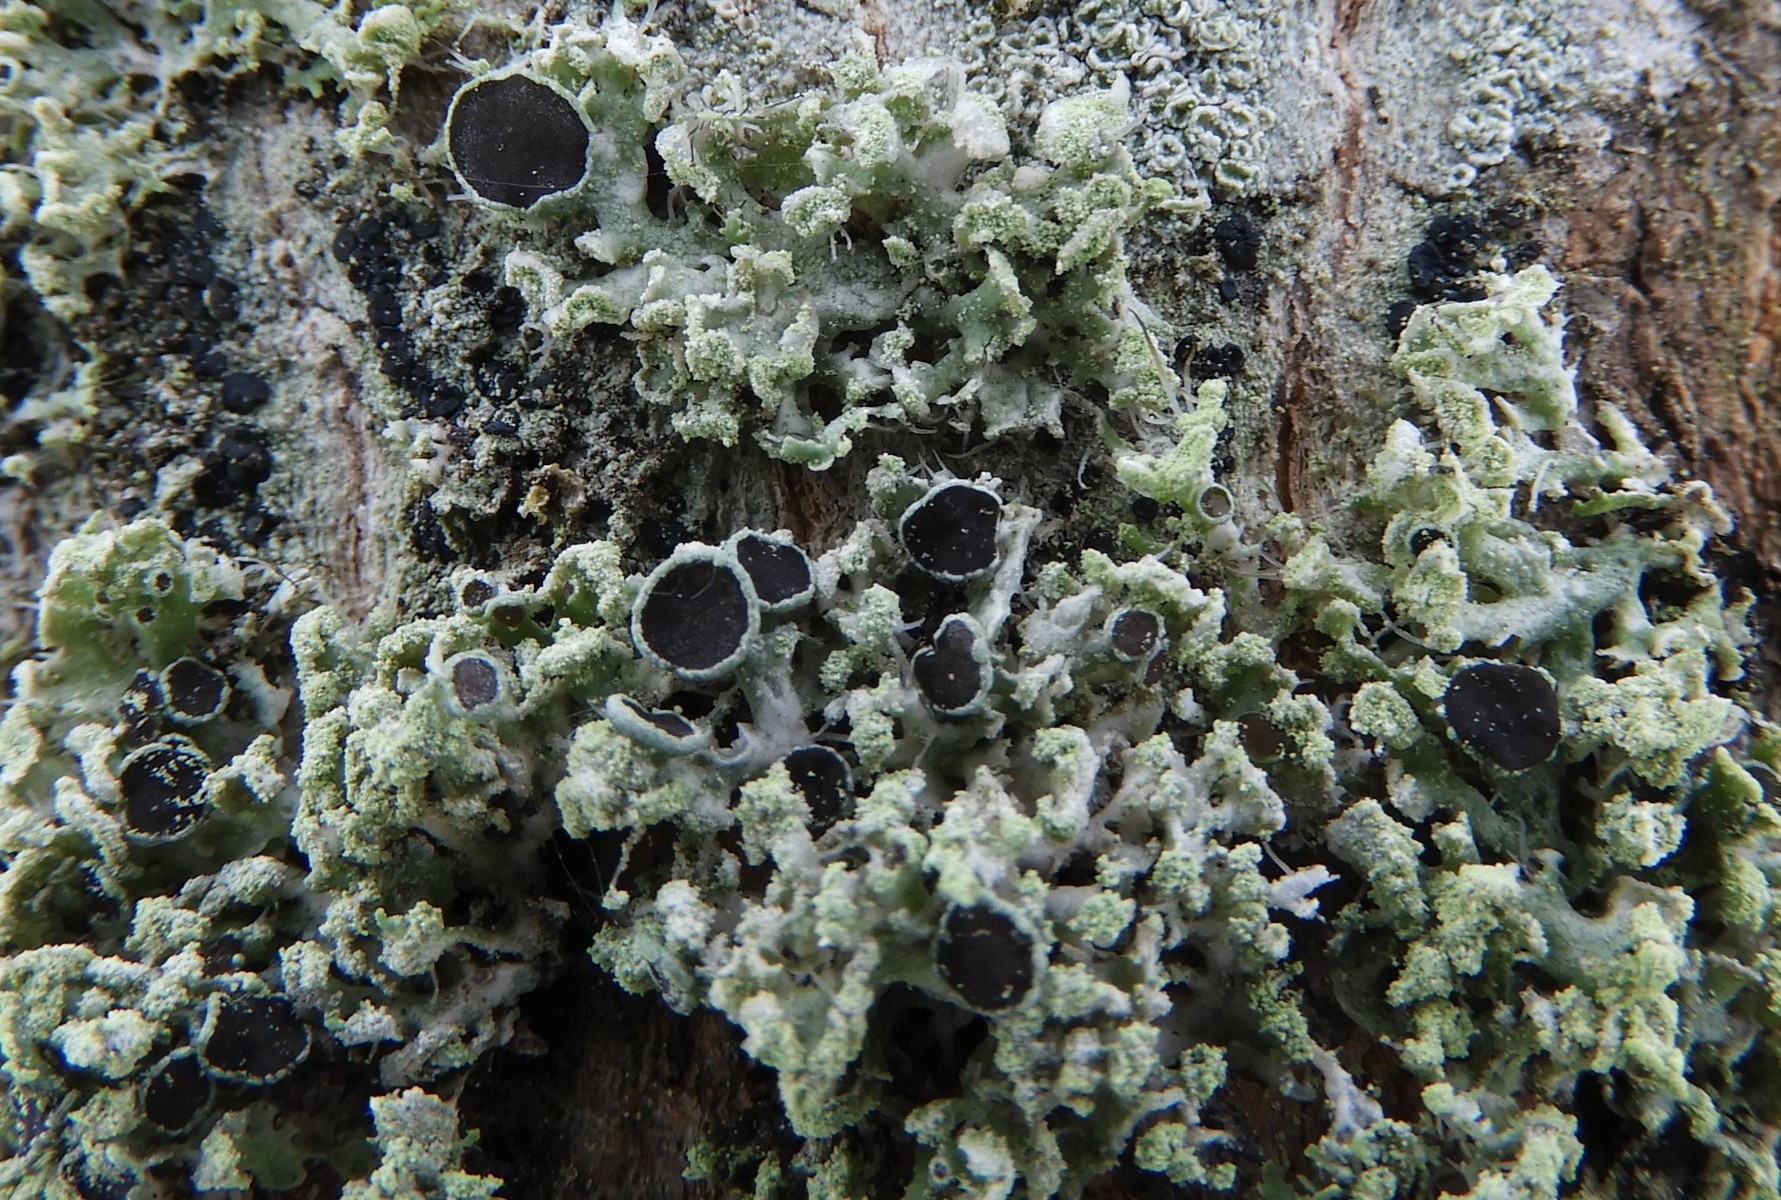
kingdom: Fungi
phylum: Ascomycota
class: Lecanoromycetes
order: Caliciales
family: Physciaceae
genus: Physcia
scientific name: Physcia tenella
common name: spæd rosetlav
